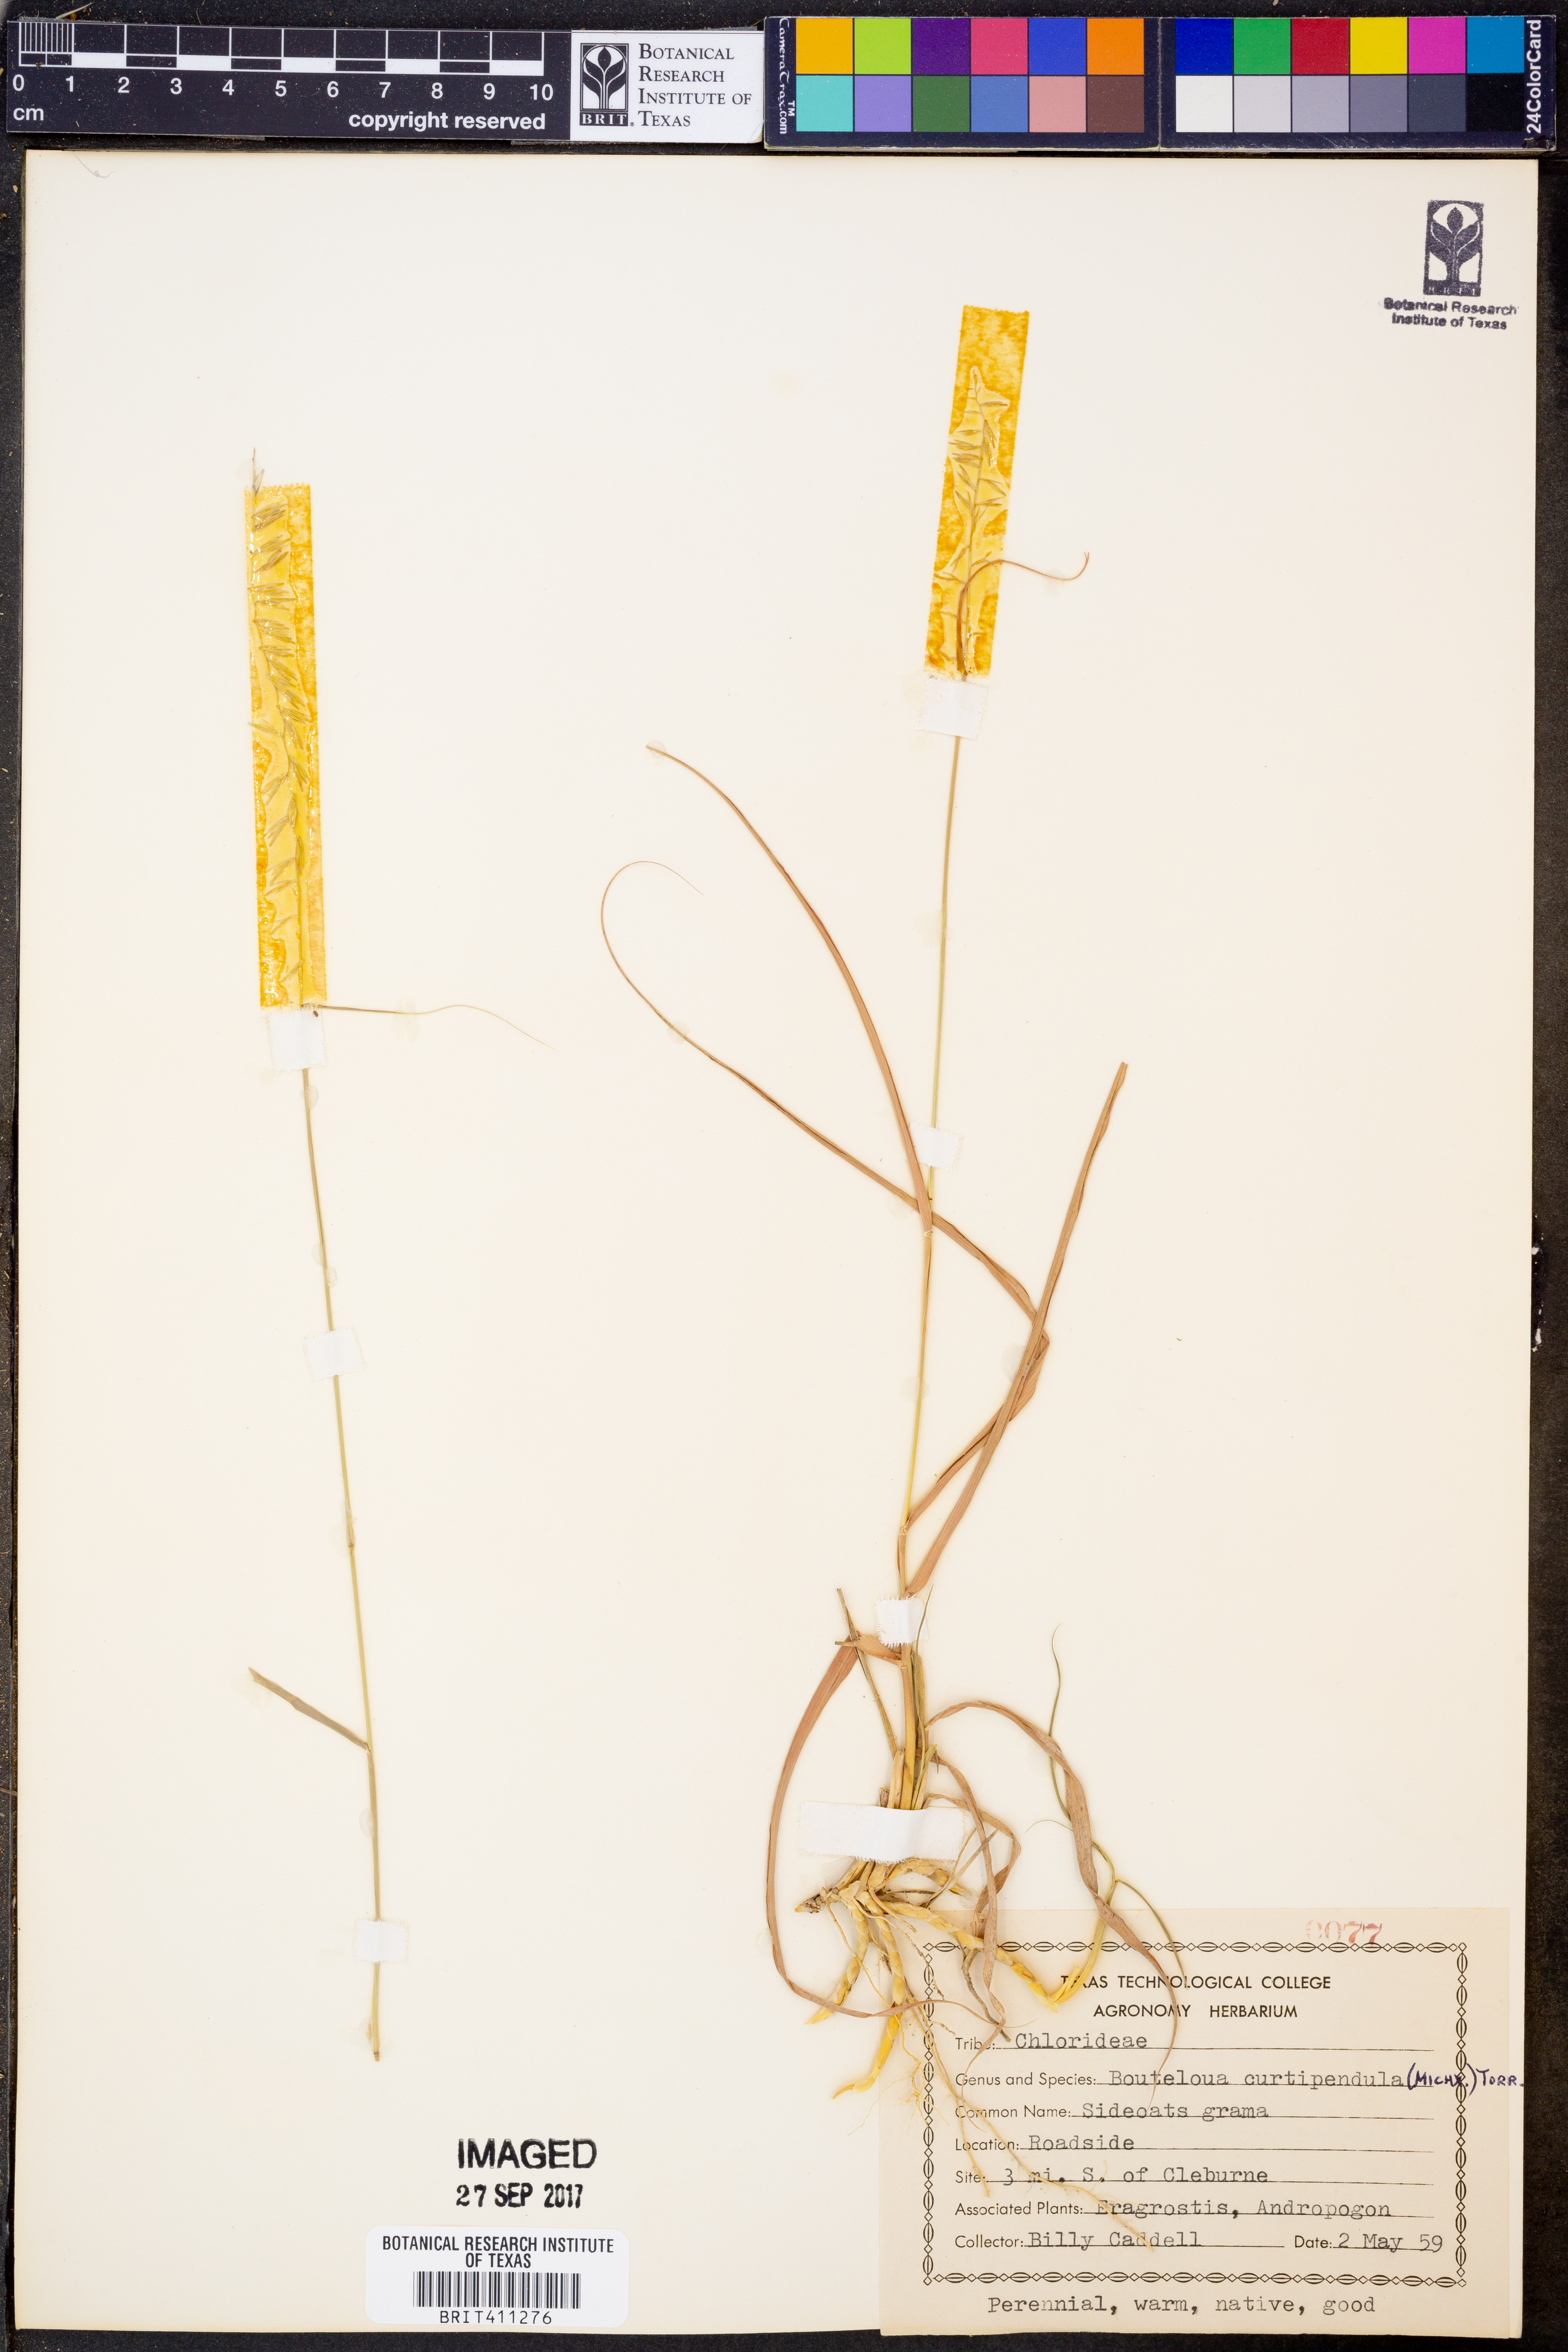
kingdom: Plantae
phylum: Tracheophyta
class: Liliopsida
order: Poales
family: Poaceae
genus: Bouteloua
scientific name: Bouteloua curtipendula
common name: Side-oats grama
